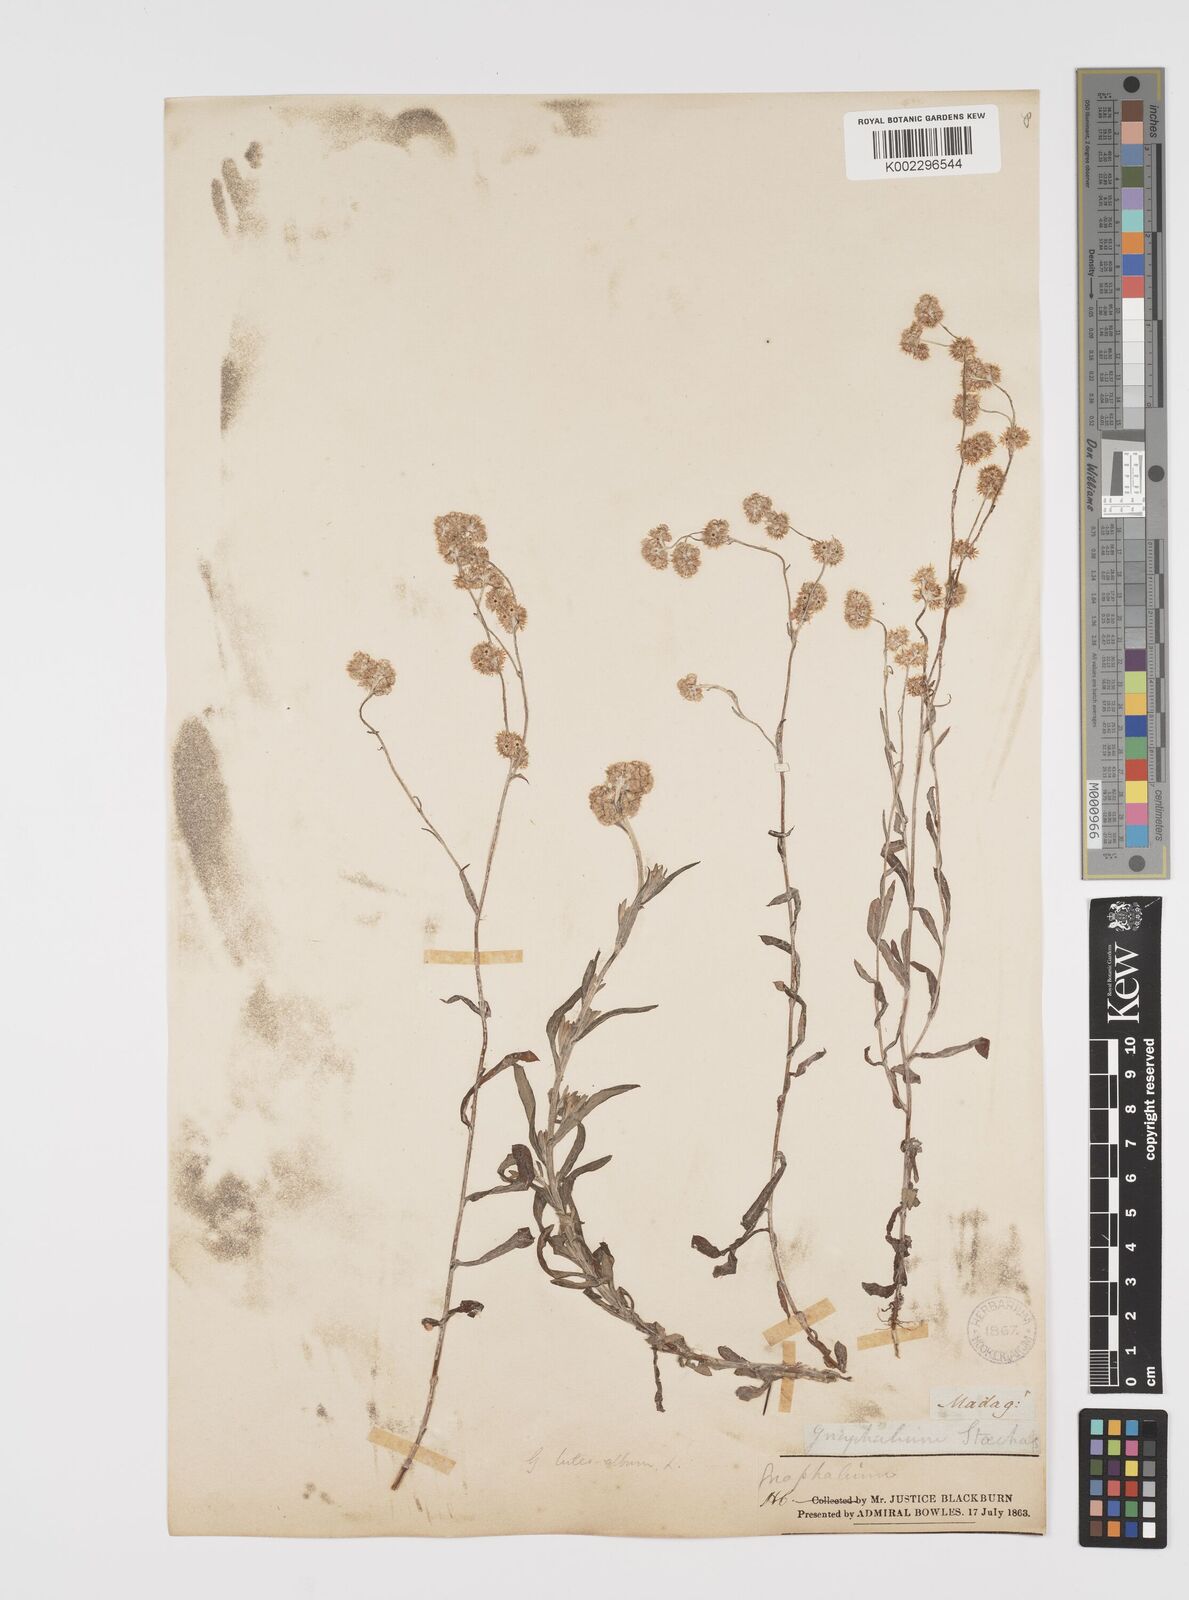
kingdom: Plantae
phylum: Tracheophyta
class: Magnoliopsida
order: Asterales
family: Asteraceae
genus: Helichrysum
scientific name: Helichrysum luteoalbum
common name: Daisy
